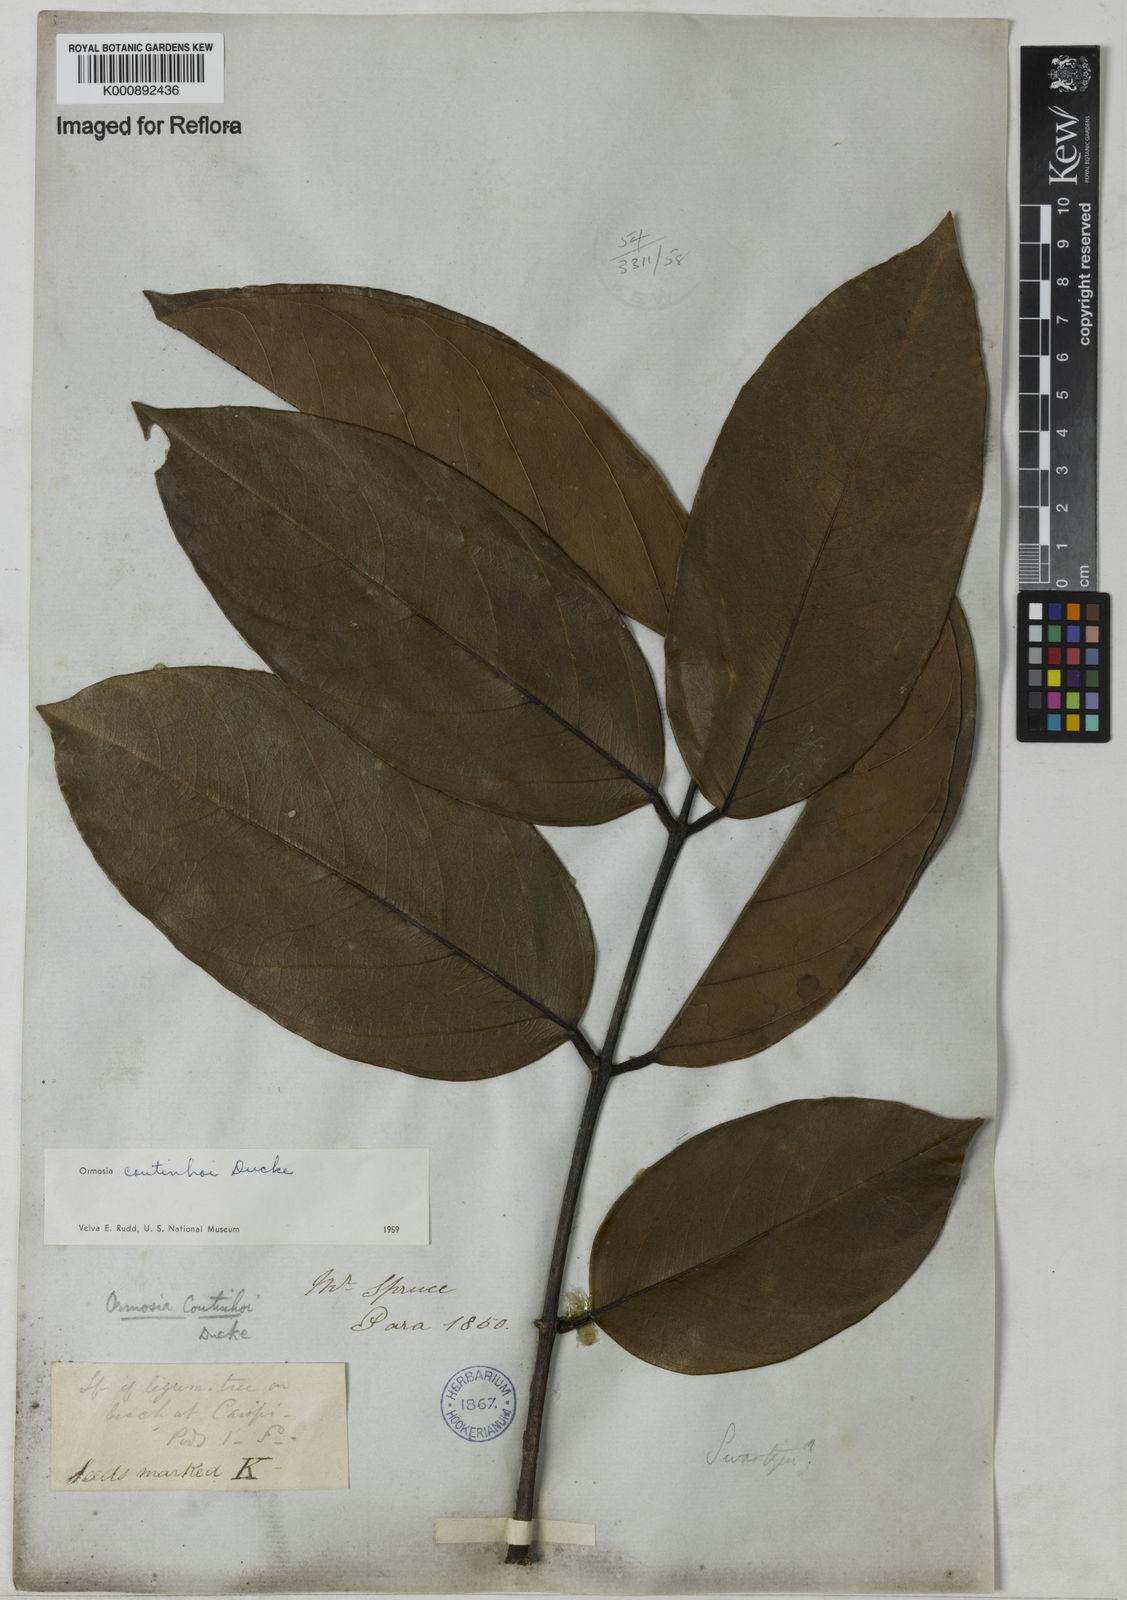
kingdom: Plantae
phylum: Tracheophyta
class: Magnoliopsida
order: Fabales
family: Fabaceae
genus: Ormosia
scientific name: Ormosia coutinhoi
